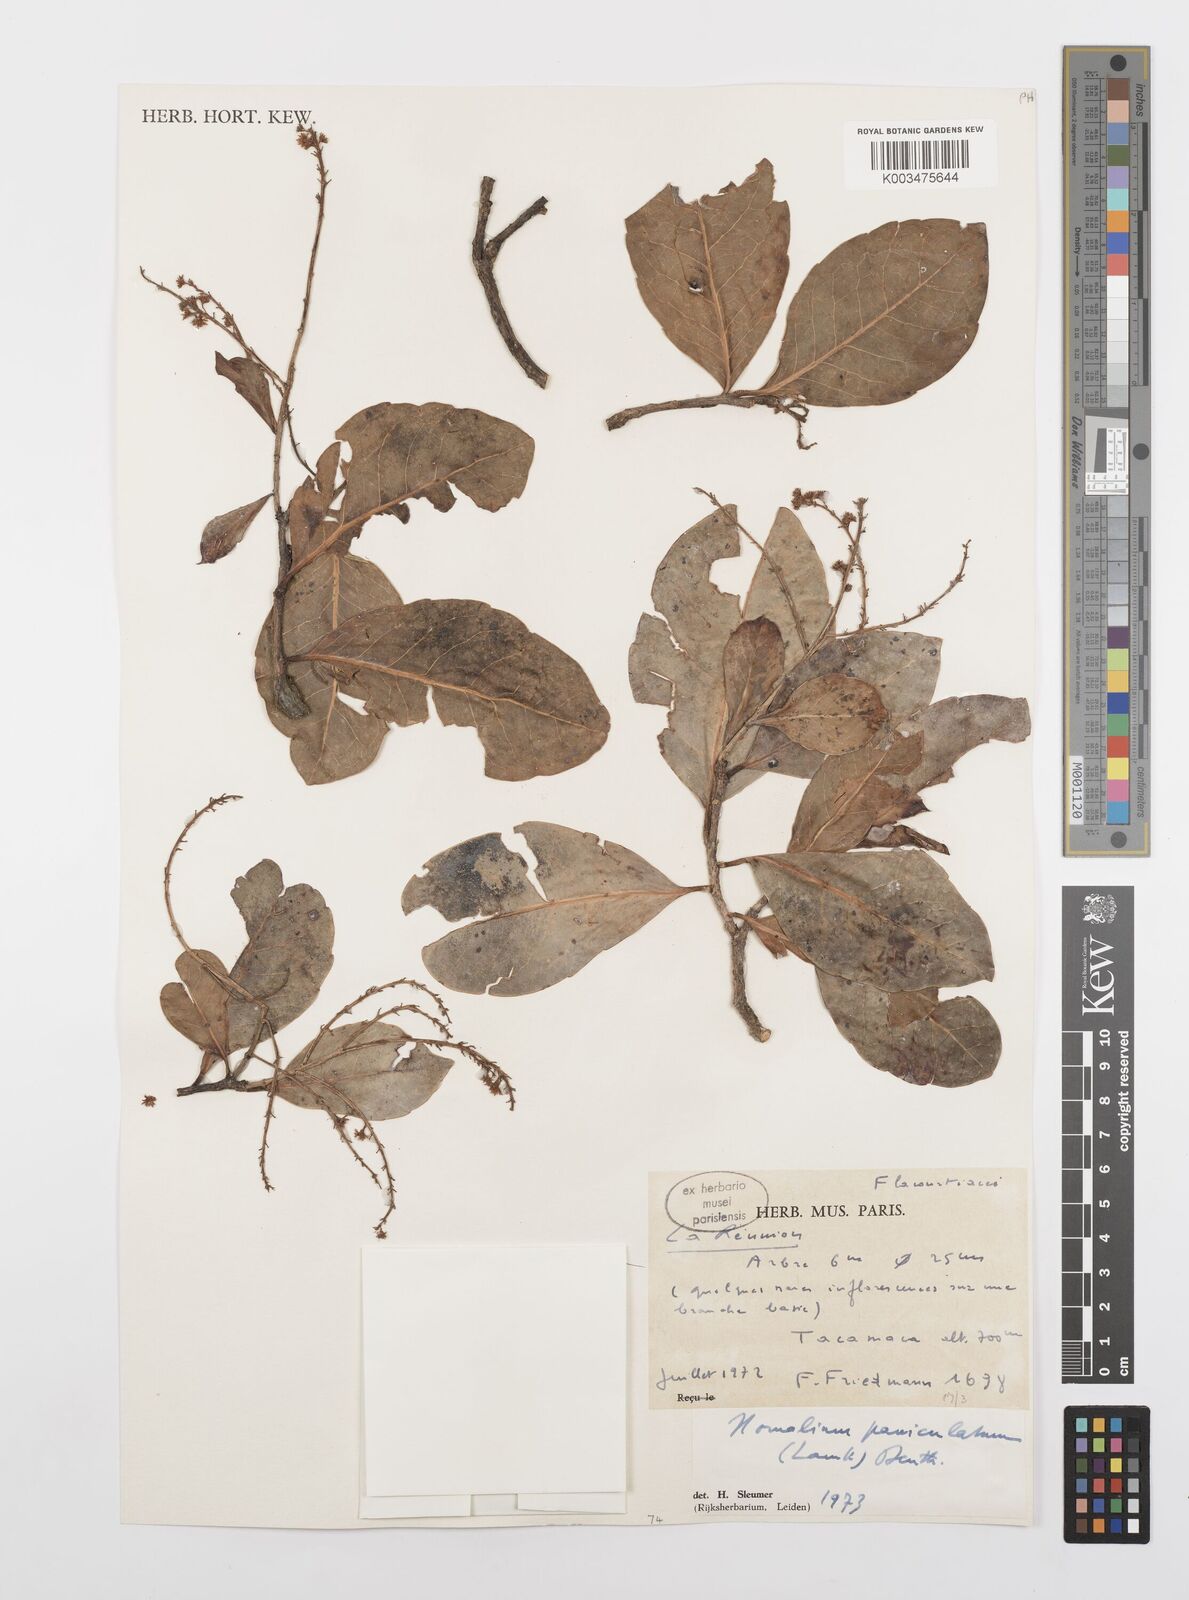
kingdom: Plantae
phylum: Tracheophyta
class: Magnoliopsida
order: Malpighiales
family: Salicaceae
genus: Homalium
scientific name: Homalium erianthum
